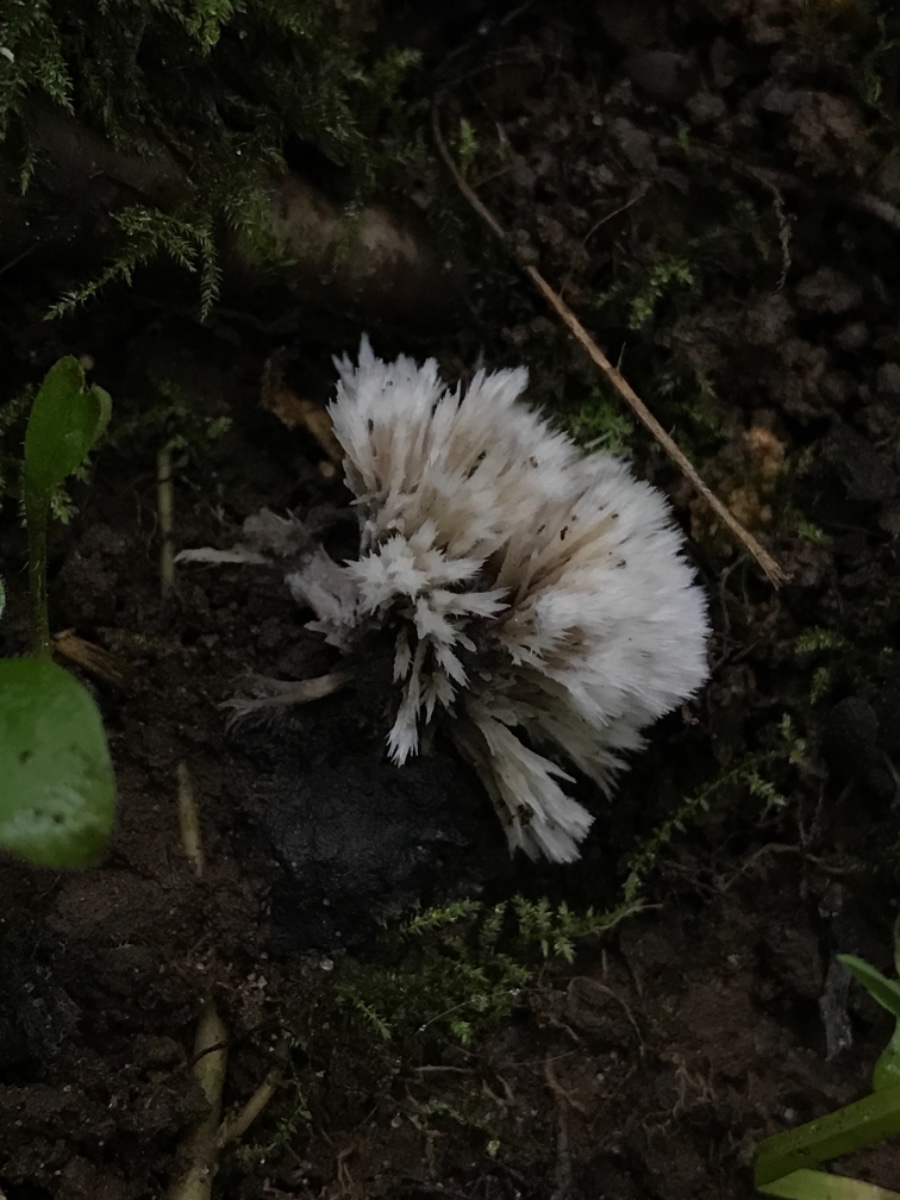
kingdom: Fungi
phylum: Basidiomycota
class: Agaricomycetes
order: Thelephorales
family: Thelephoraceae
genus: Thelephora
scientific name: Thelephora penicillata
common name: fladtrådt frynsesvamp
